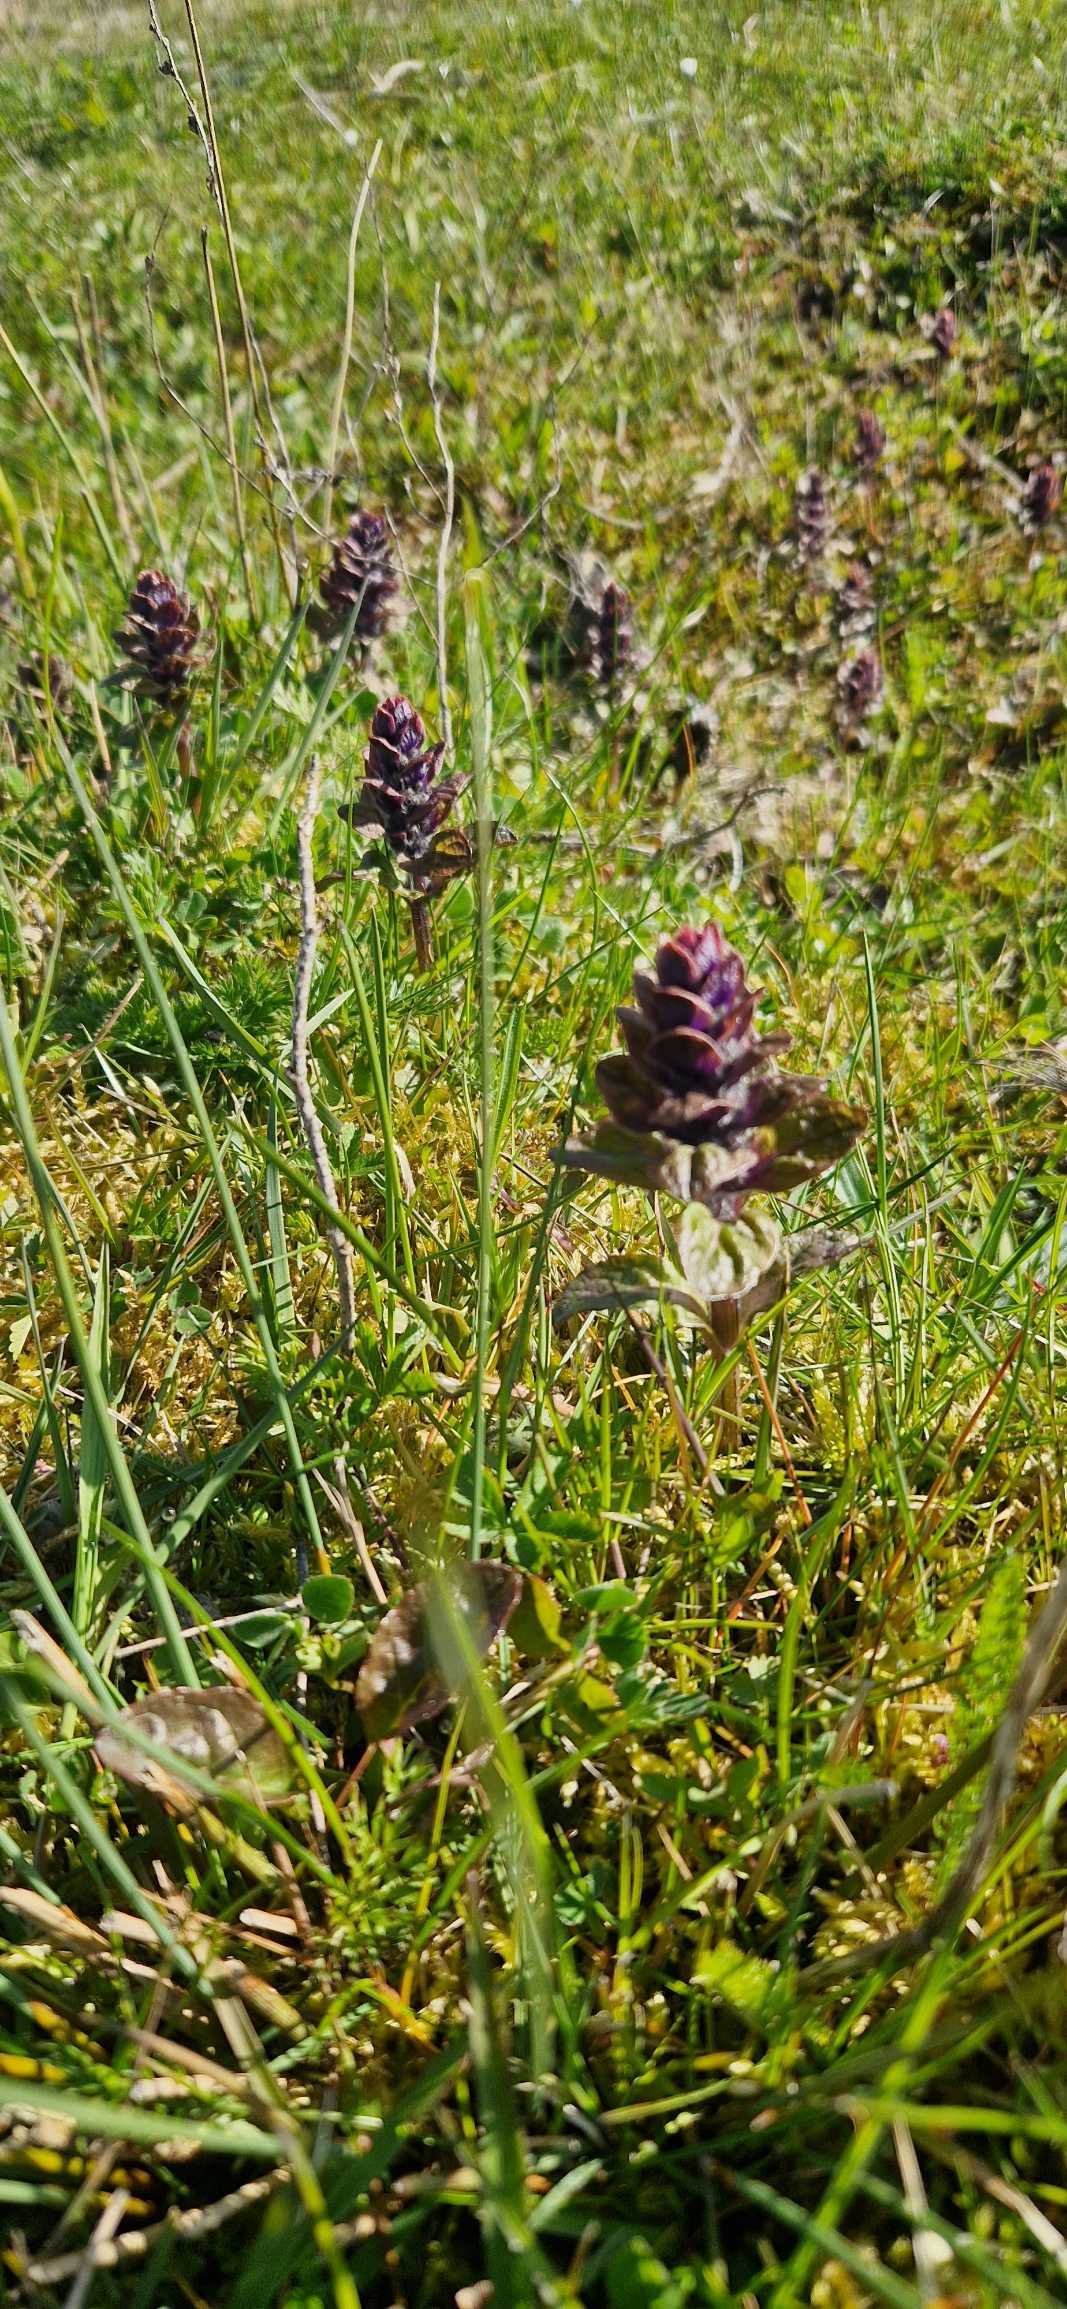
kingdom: Plantae
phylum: Tracheophyta
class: Magnoliopsida
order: Lamiales
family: Lamiaceae
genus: Ajuga
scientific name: Ajuga reptans
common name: Krybende læbeløs
